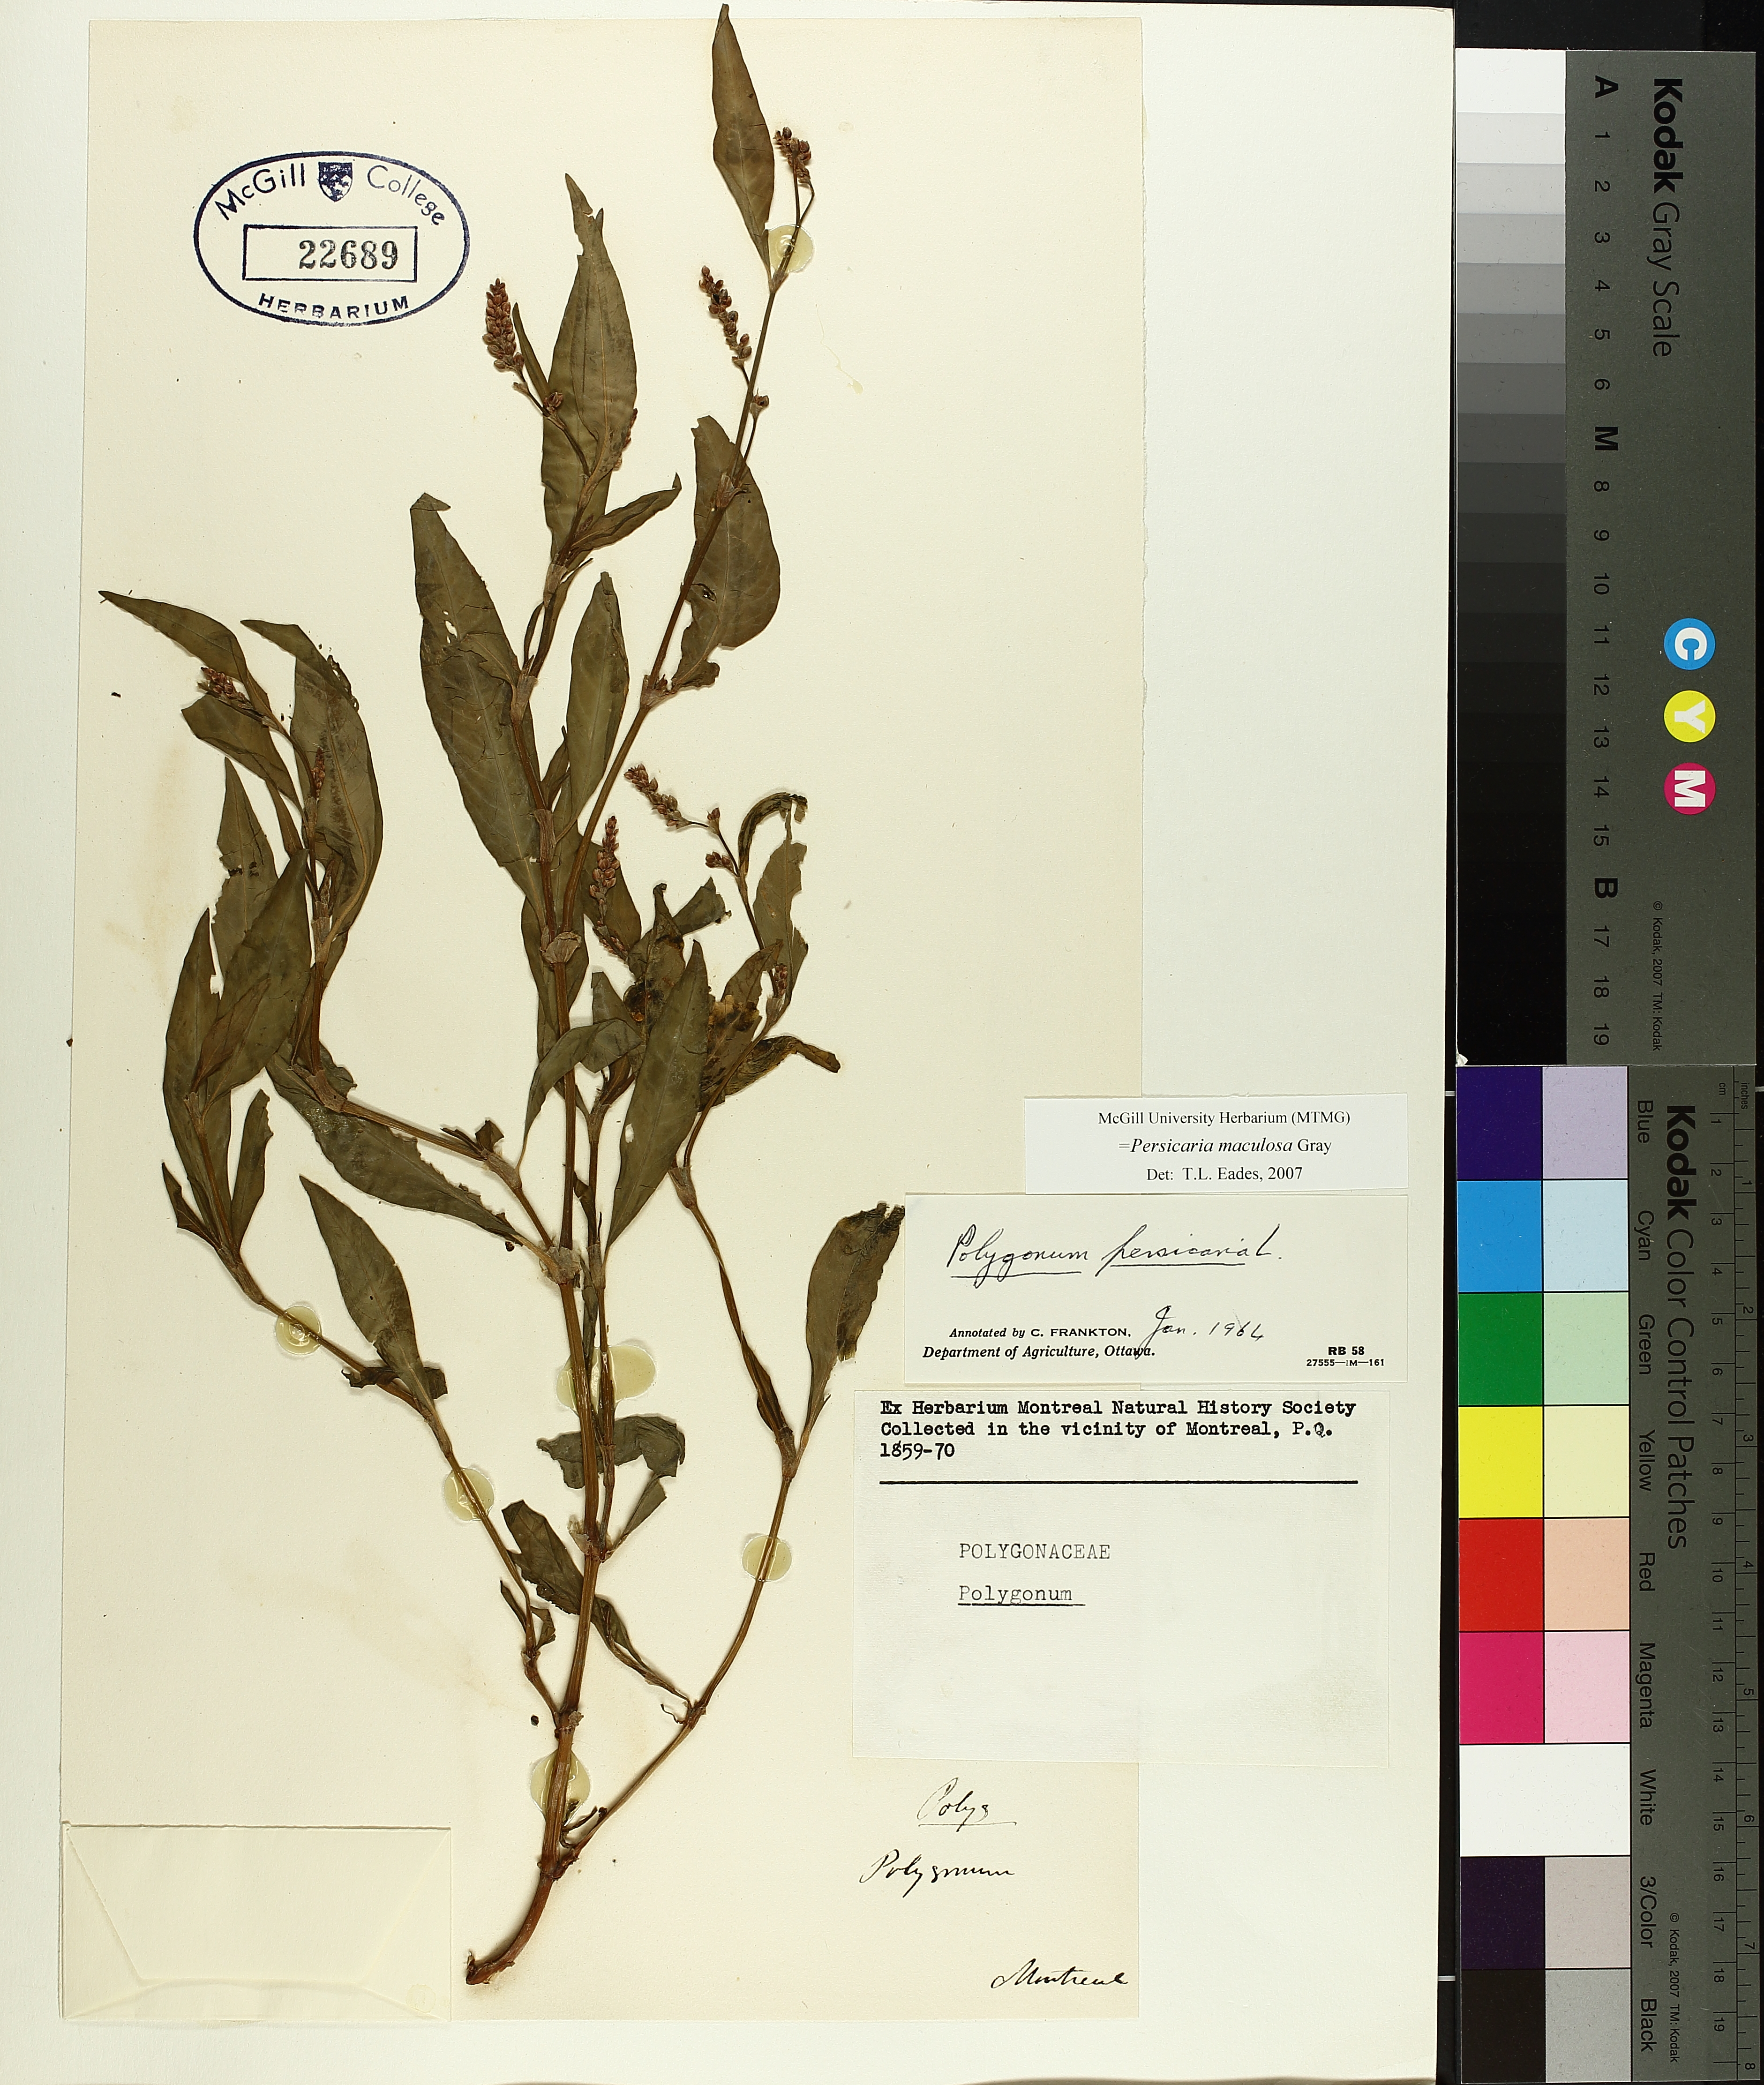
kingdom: Plantae
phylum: Tracheophyta
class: Magnoliopsida
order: Caryophyllales
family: Polygonaceae
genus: Persicaria
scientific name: Persicaria maculosa
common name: Redshank
